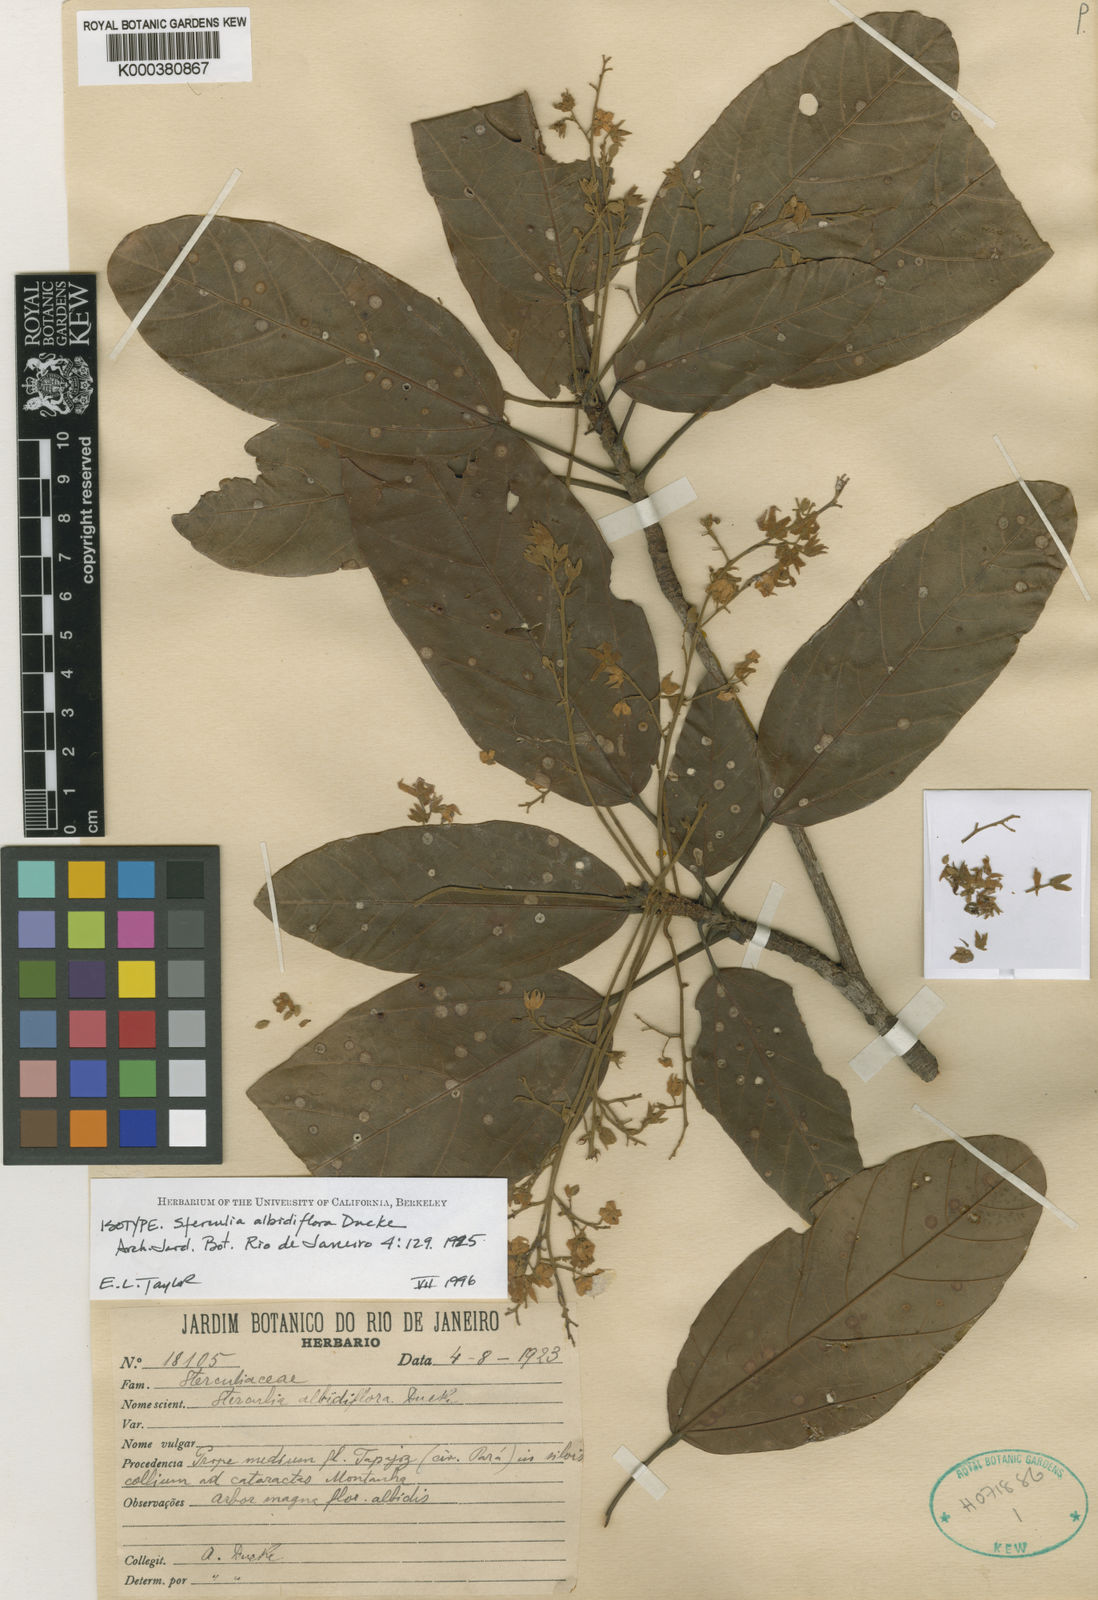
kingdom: Plantae
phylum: Tracheophyta
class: Magnoliopsida
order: Malvales
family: Malvaceae
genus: Sterculia
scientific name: Sterculia albidiflora
